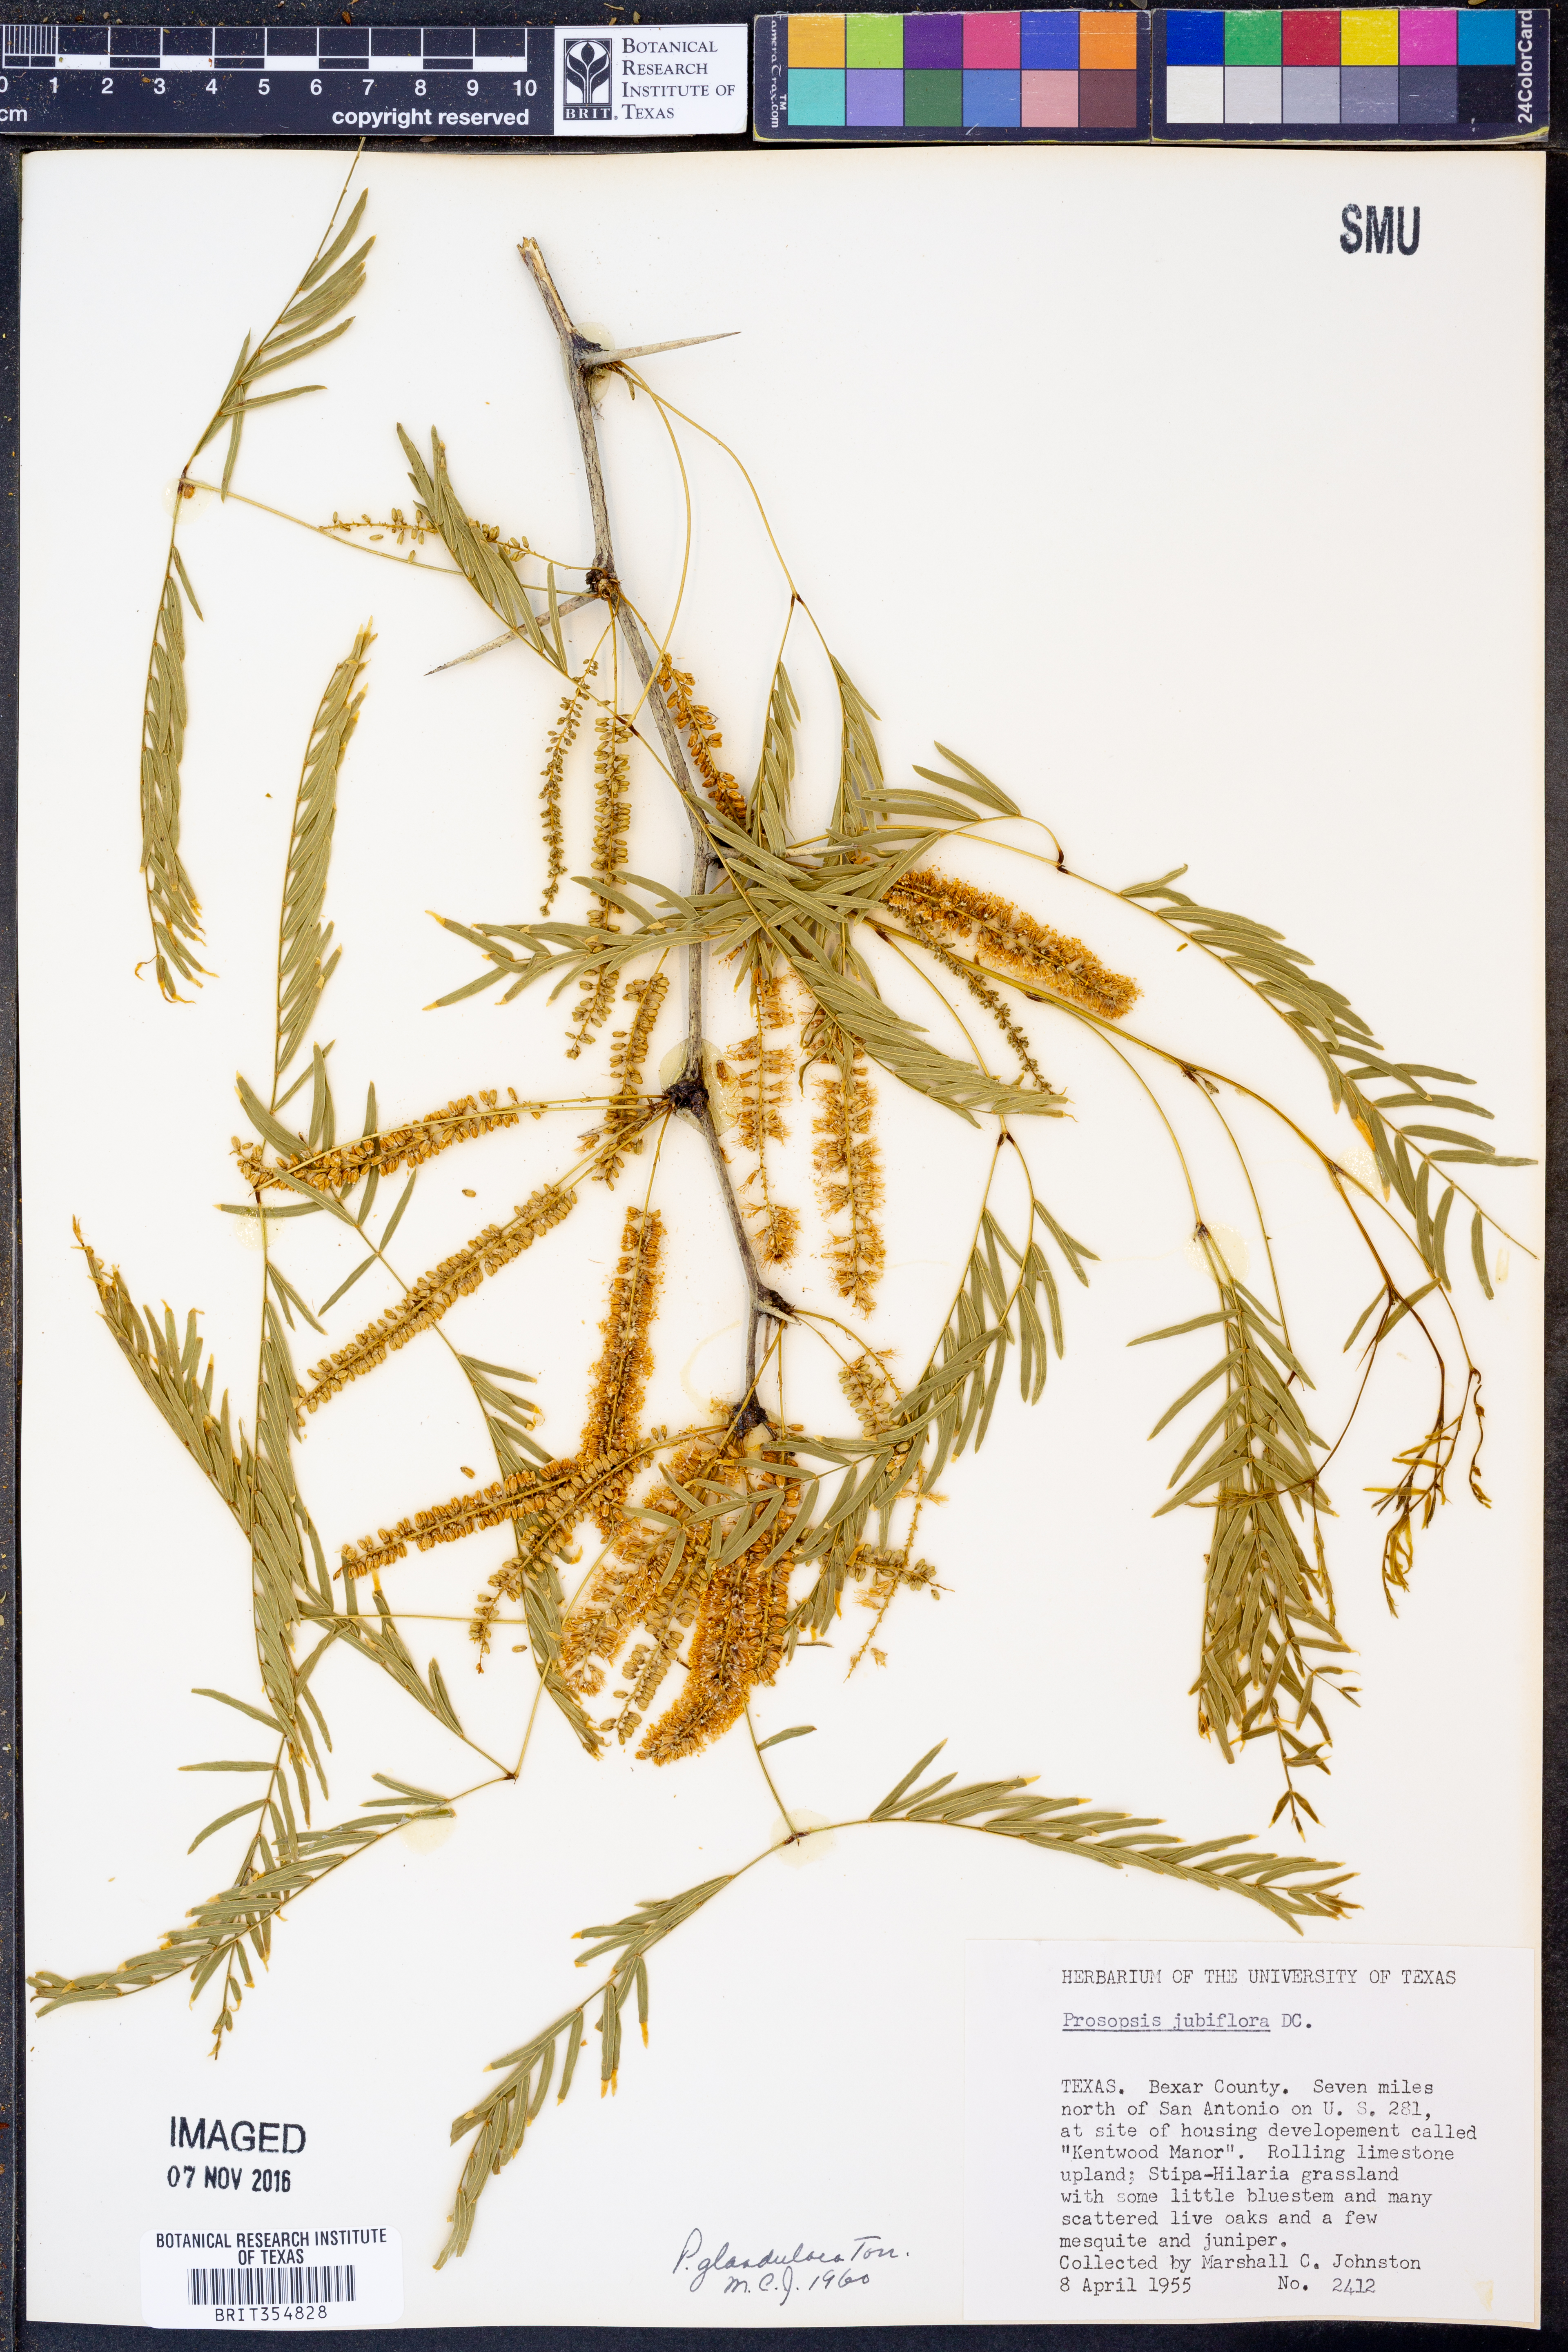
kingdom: Plantae
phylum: Tracheophyta
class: Magnoliopsida
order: Fabales
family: Fabaceae
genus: Prosopis
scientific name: Prosopis glandulosa
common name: Honey mesquite
